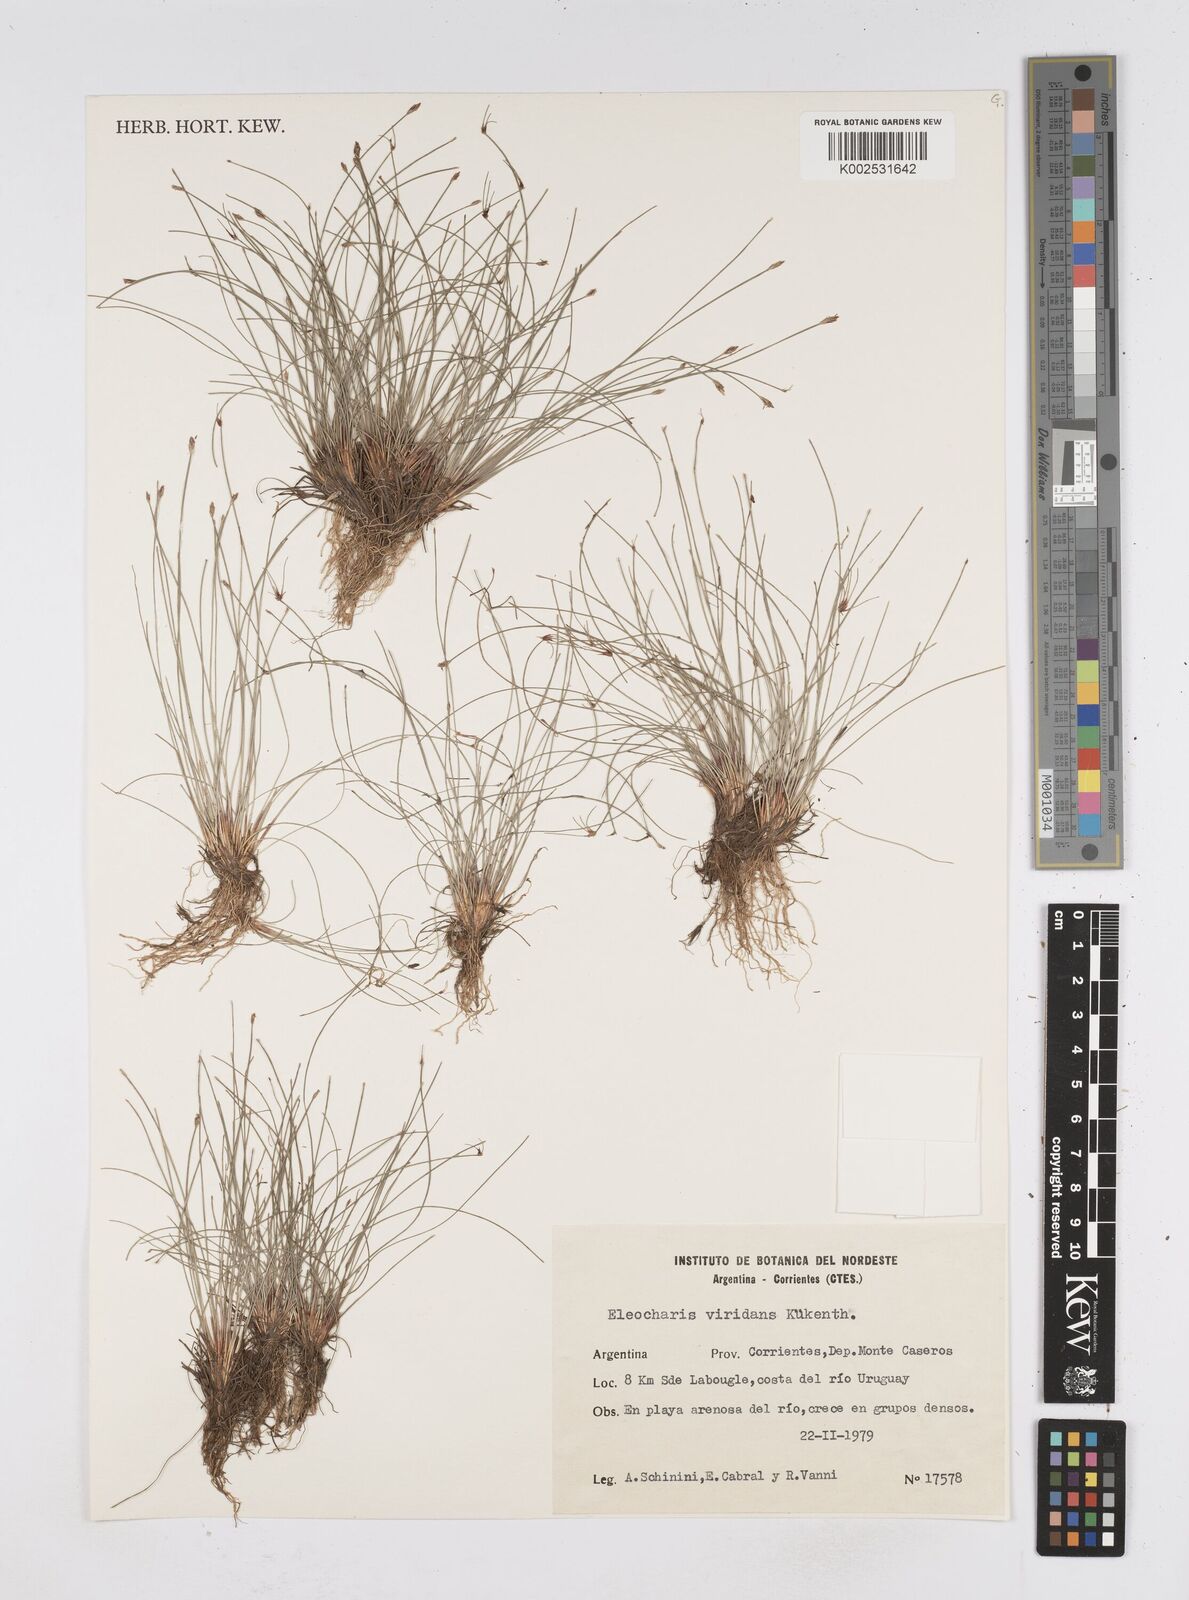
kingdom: Plantae
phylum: Tracheophyta
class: Liliopsida
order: Poales
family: Cyperaceae
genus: Eleocharis
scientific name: Eleocharis viridans
